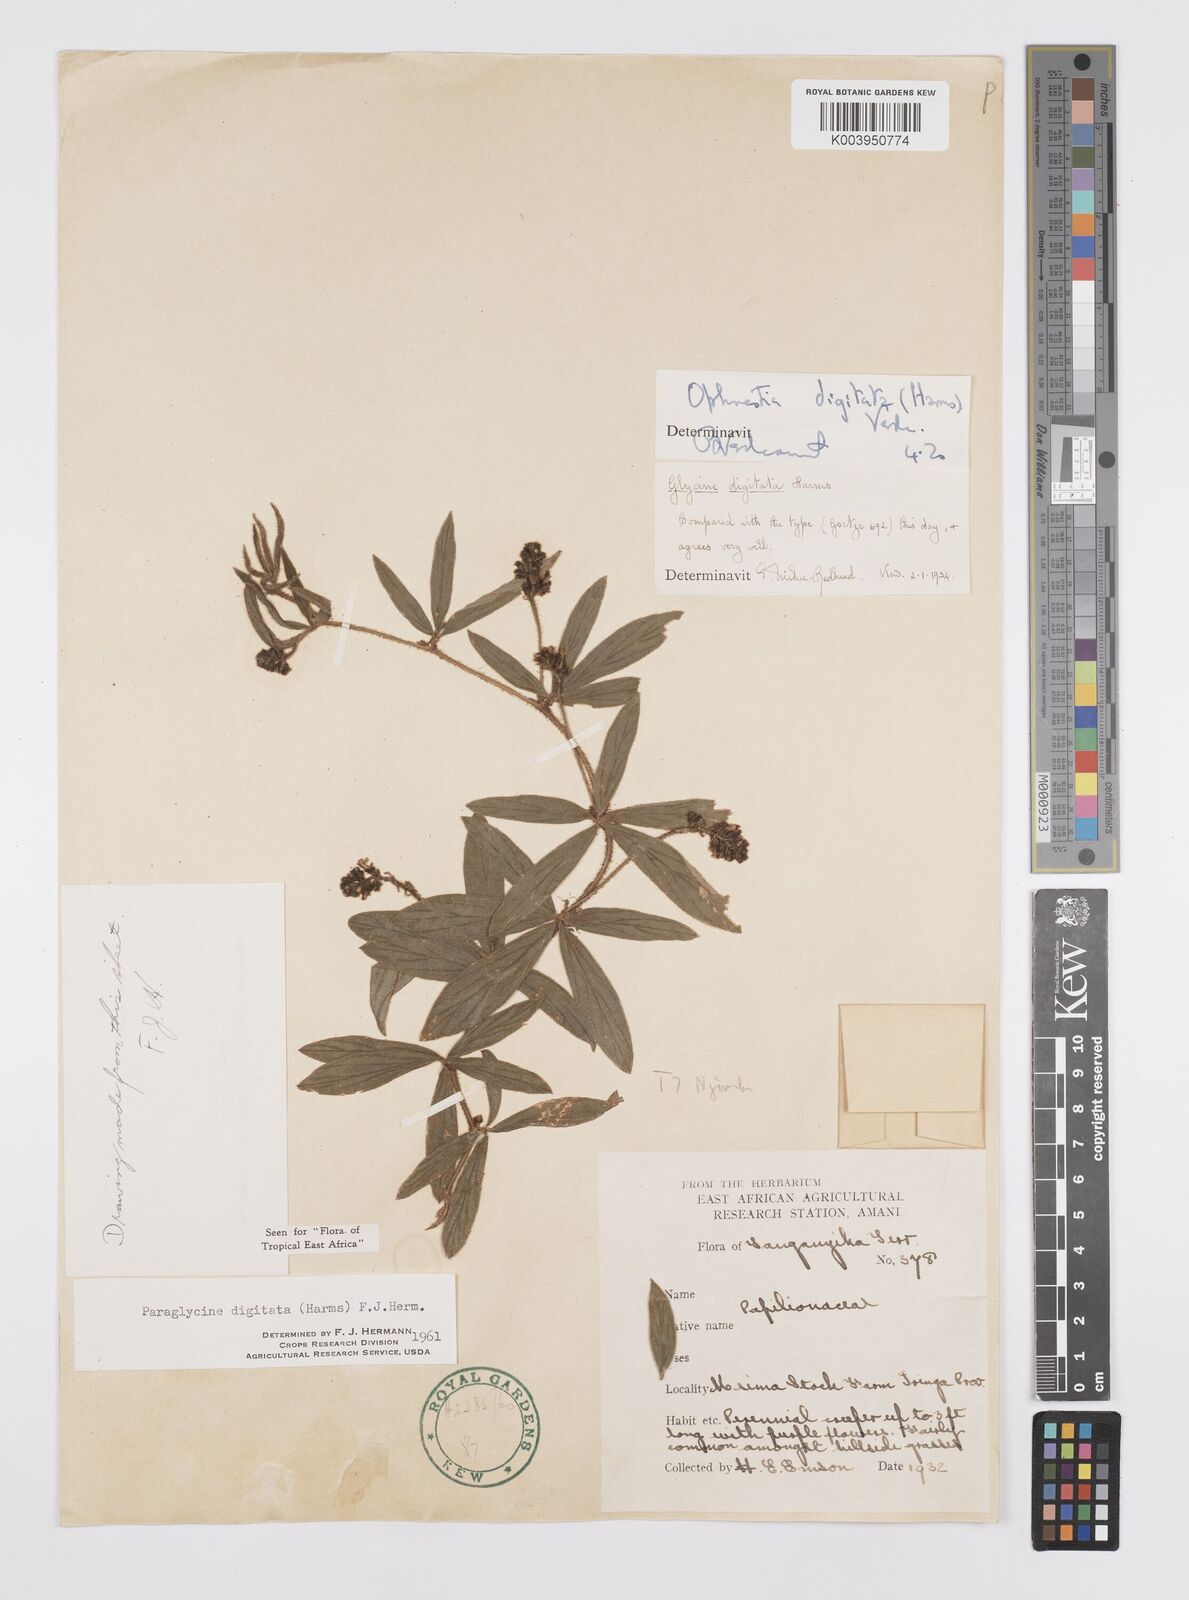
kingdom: Plantae
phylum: Tracheophyta
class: Magnoliopsida
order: Fabales
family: Fabaceae
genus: Ophrestia
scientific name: Ophrestia digitata
